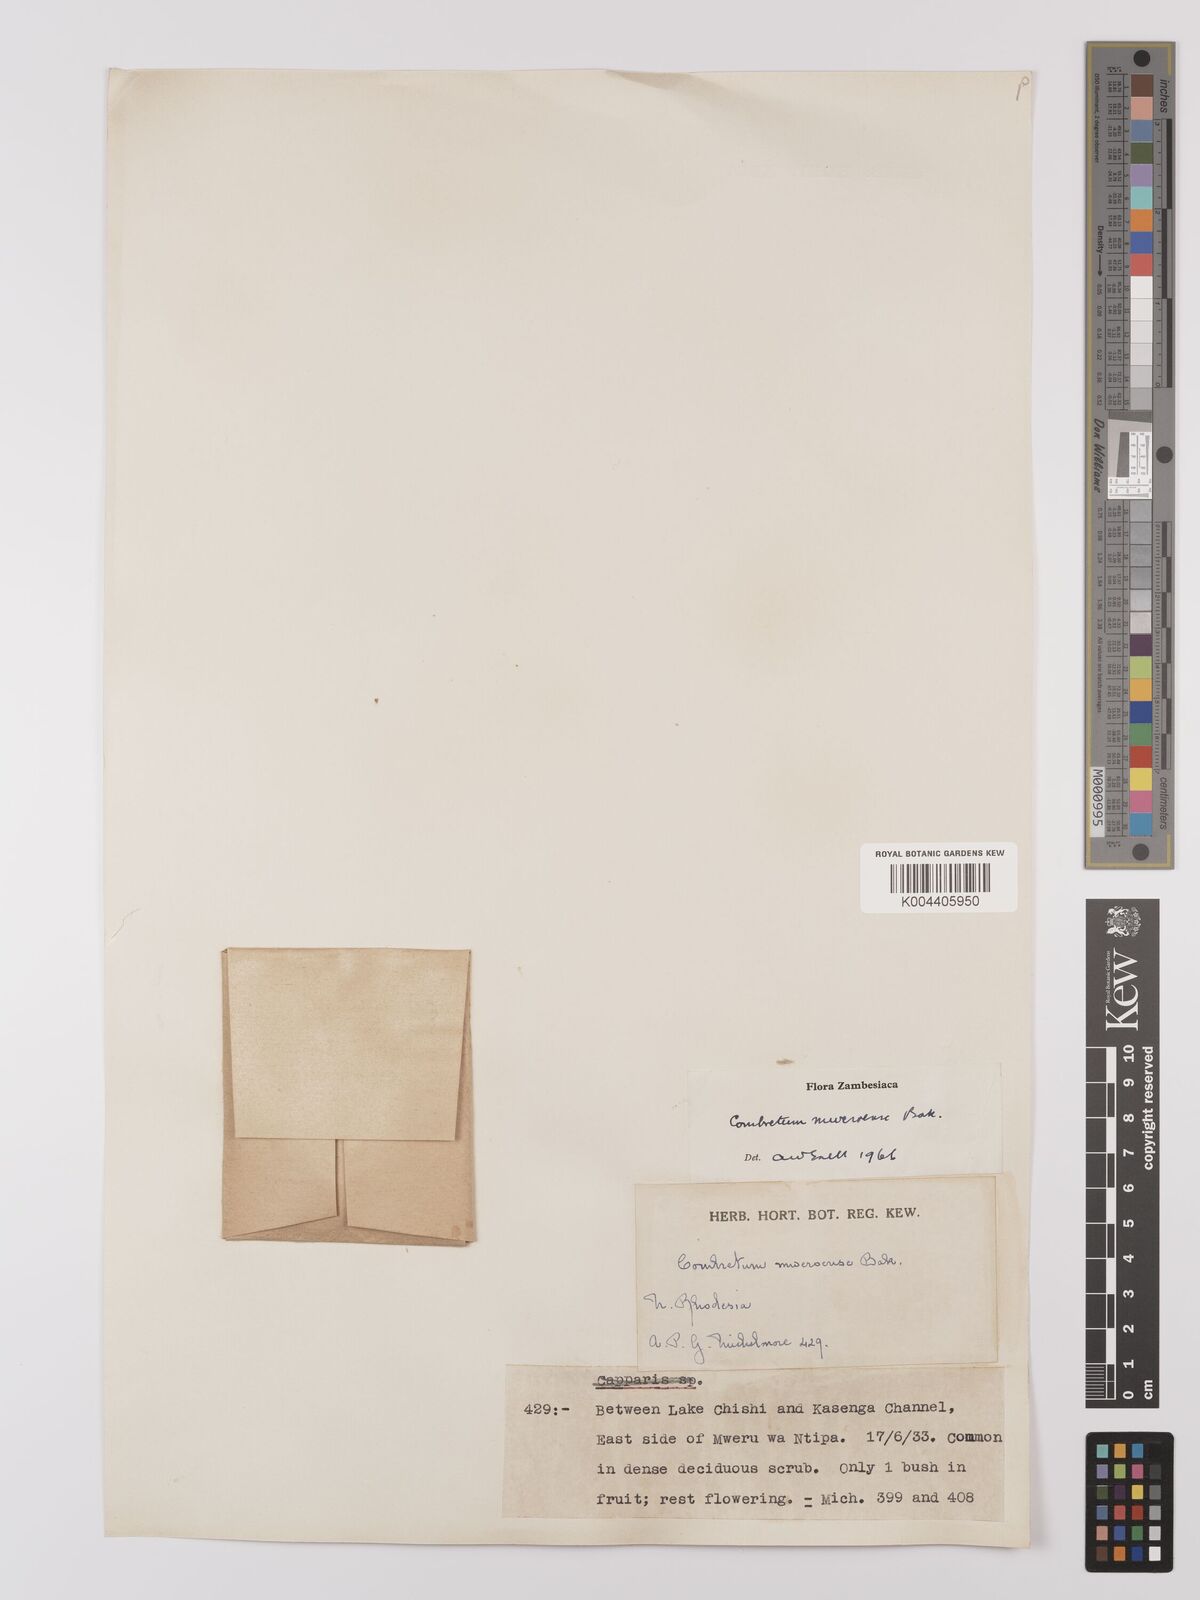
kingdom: Plantae
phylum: Tracheophyta
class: Magnoliopsida
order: Myrtales
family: Combretaceae
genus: Combretum
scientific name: Combretum mweroense
